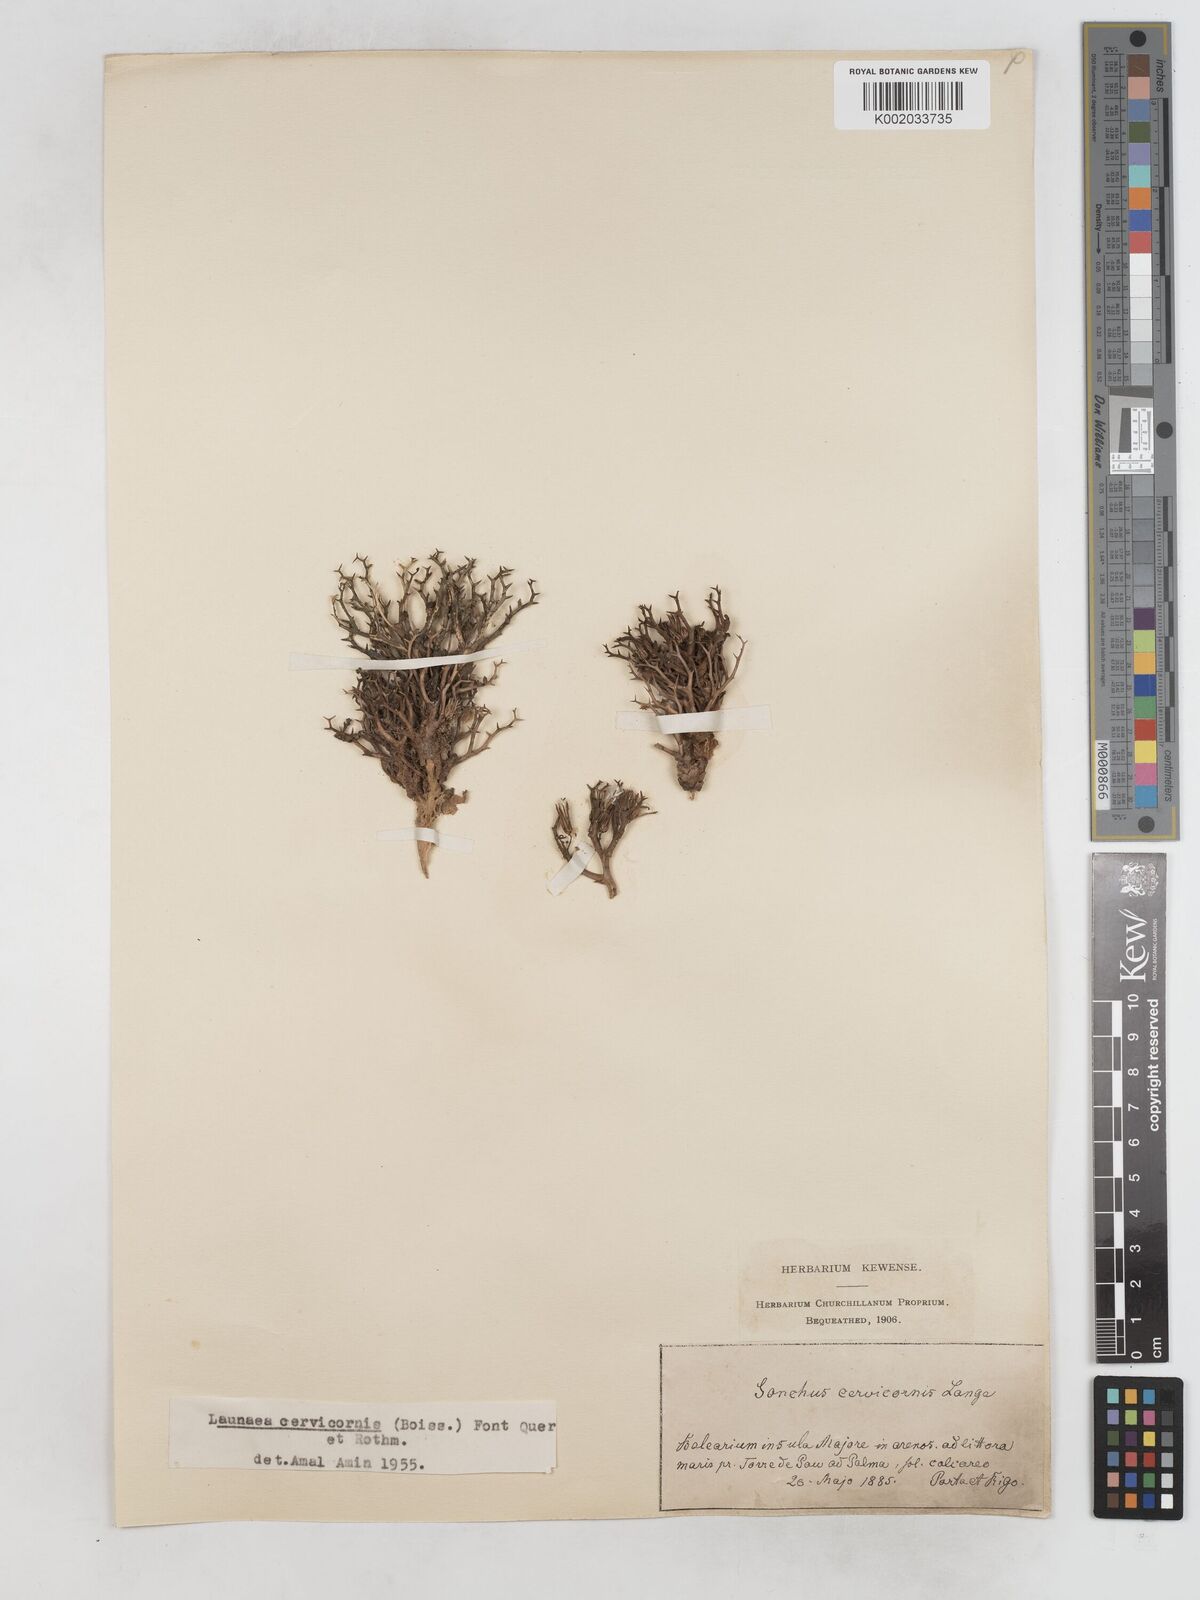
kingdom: Plantae
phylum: Tracheophyta
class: Magnoliopsida
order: Asterales
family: Asteraceae
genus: Launaea
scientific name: Launaea cervicornis
